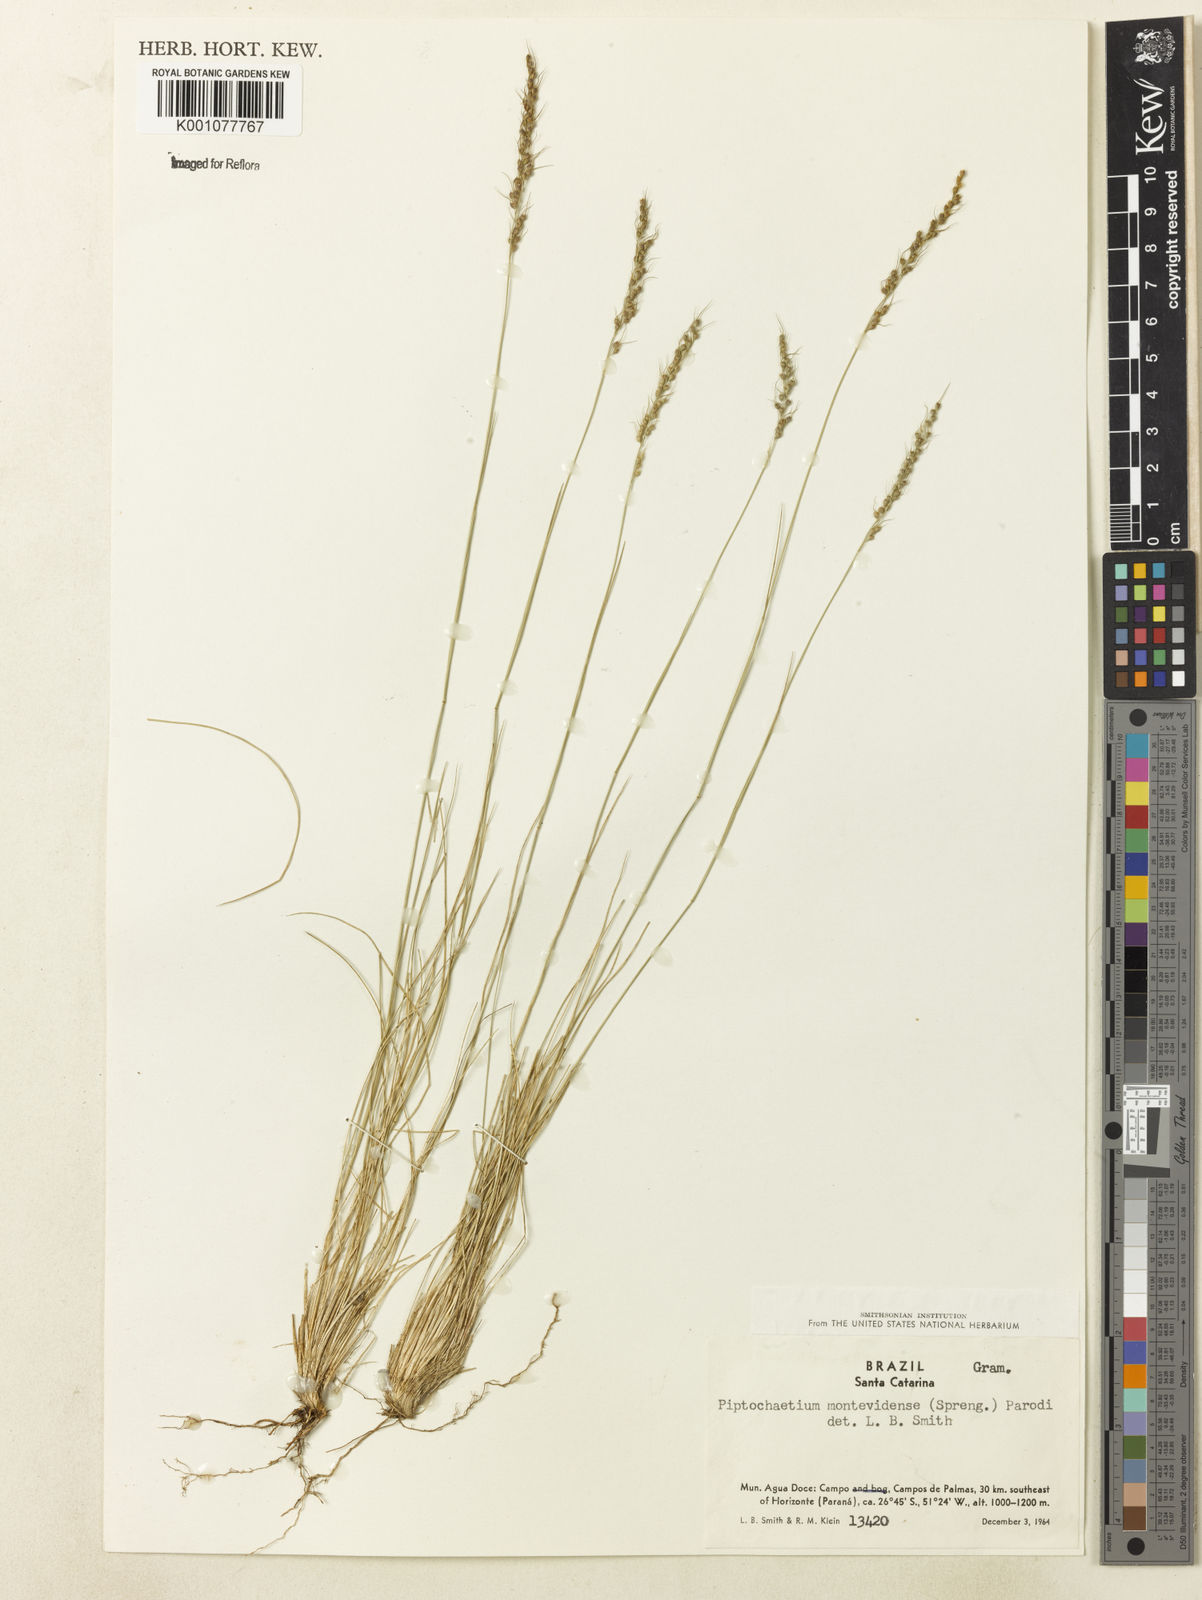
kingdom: Plantae
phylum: Tracheophyta
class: Liliopsida
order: Poales
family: Poaceae
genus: Piptochaetium
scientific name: Piptochaetium montevidense
